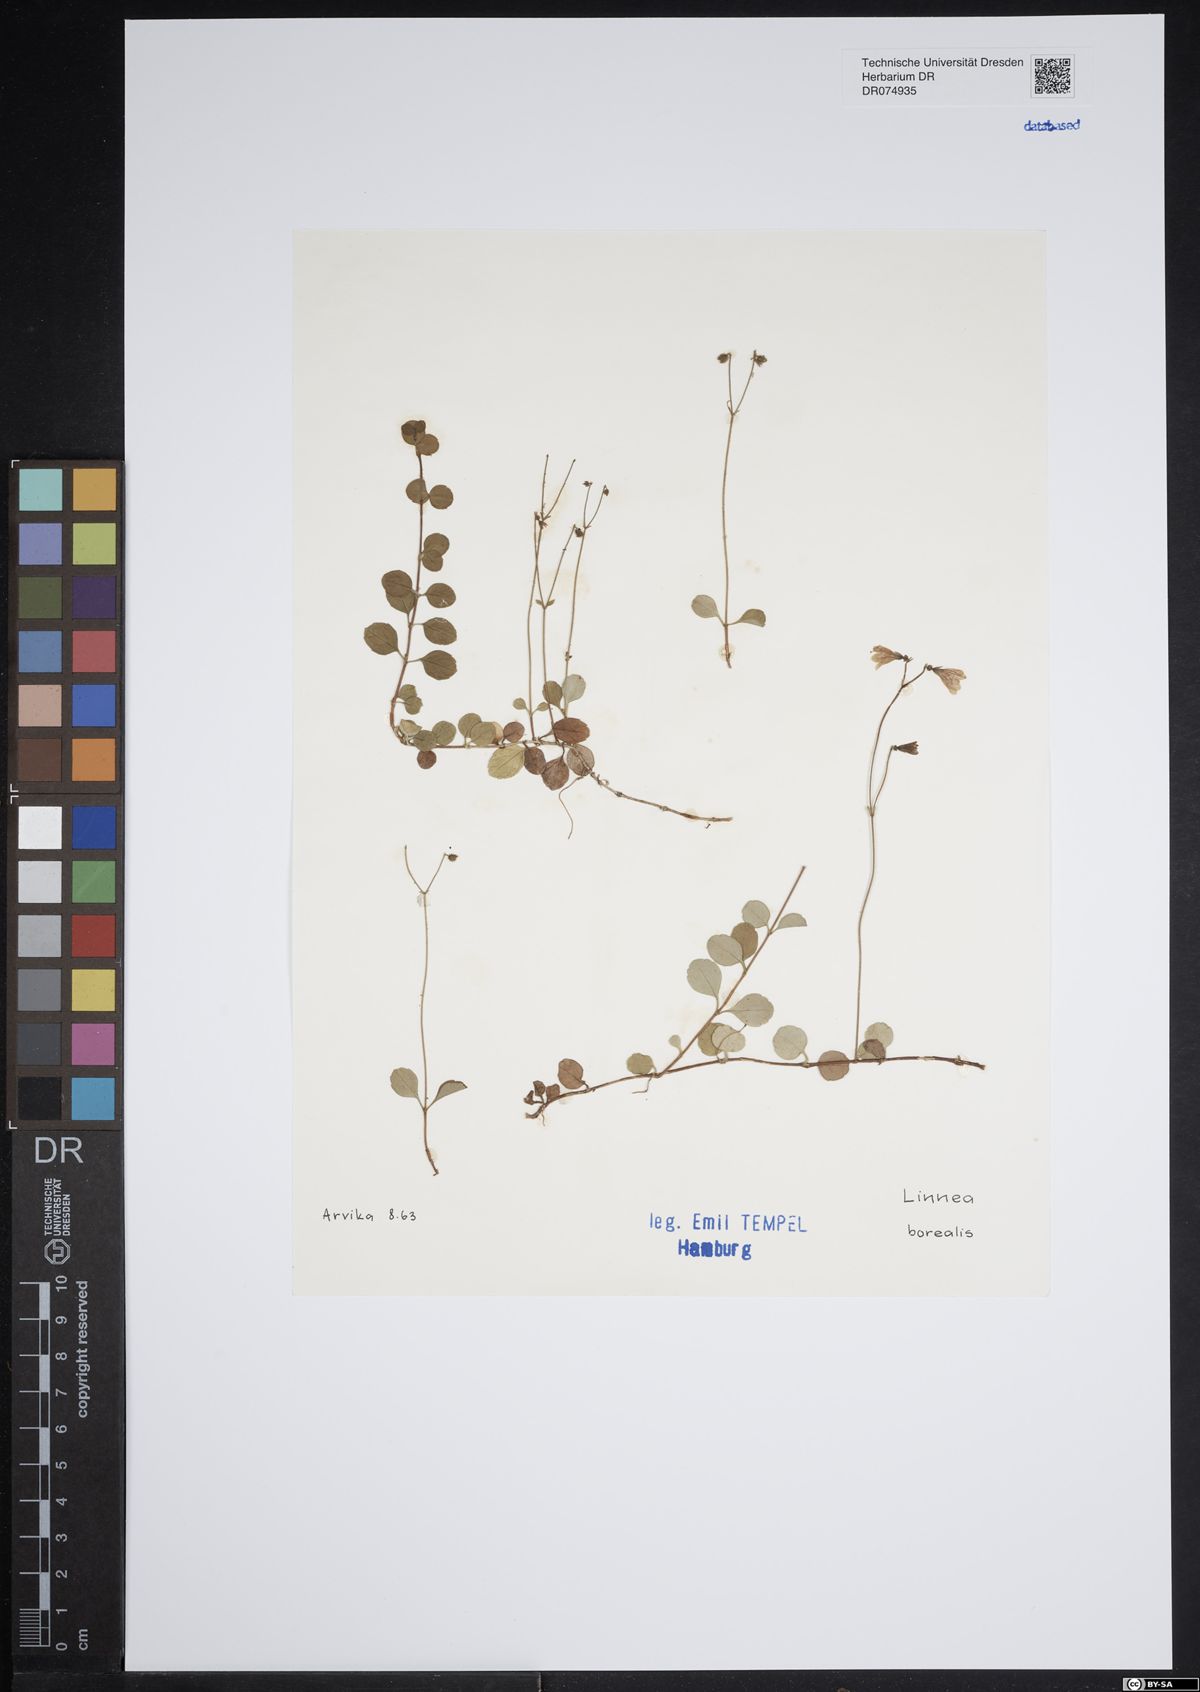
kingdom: Plantae
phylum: Tracheophyta
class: Magnoliopsida
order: Dipsacales
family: Caprifoliaceae
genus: Linnaea
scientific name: Linnaea borealis
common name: Twinflower
